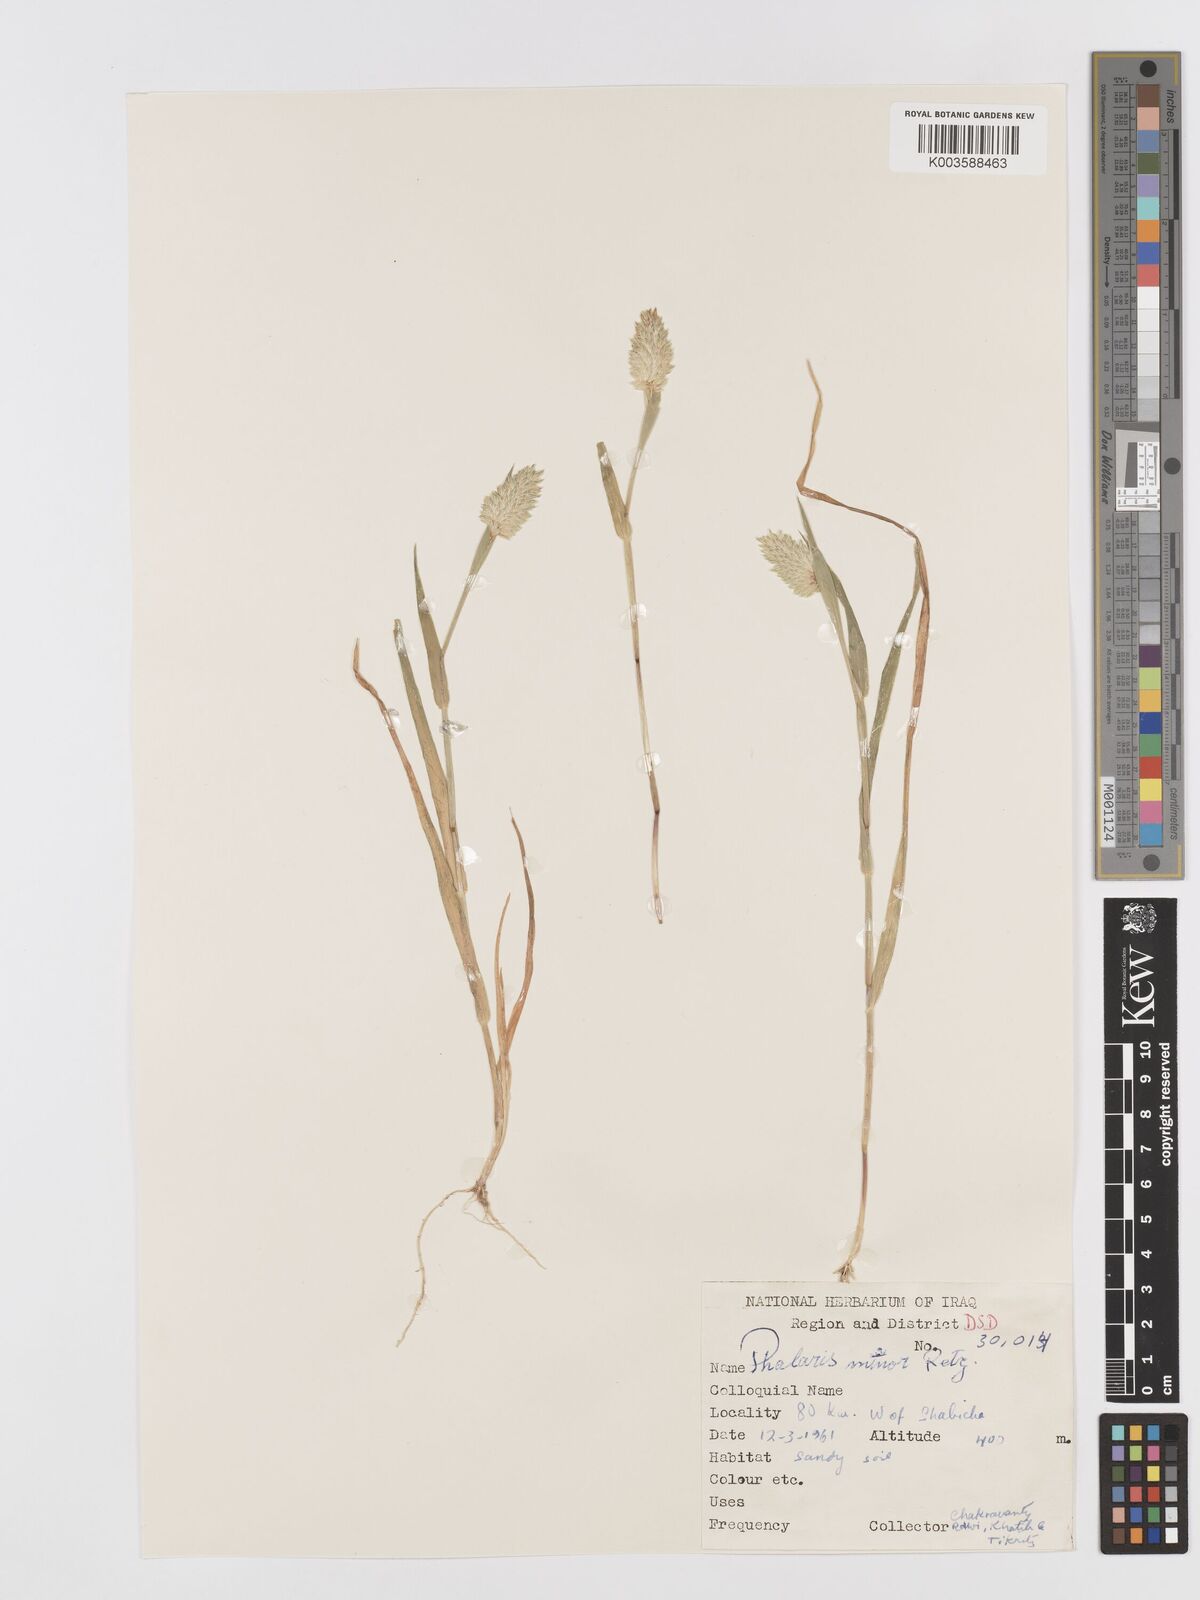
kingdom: Plantae
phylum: Tracheophyta
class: Liliopsida
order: Poales
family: Poaceae
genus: Phalaris
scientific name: Phalaris minor
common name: Littleseed canarygrass
